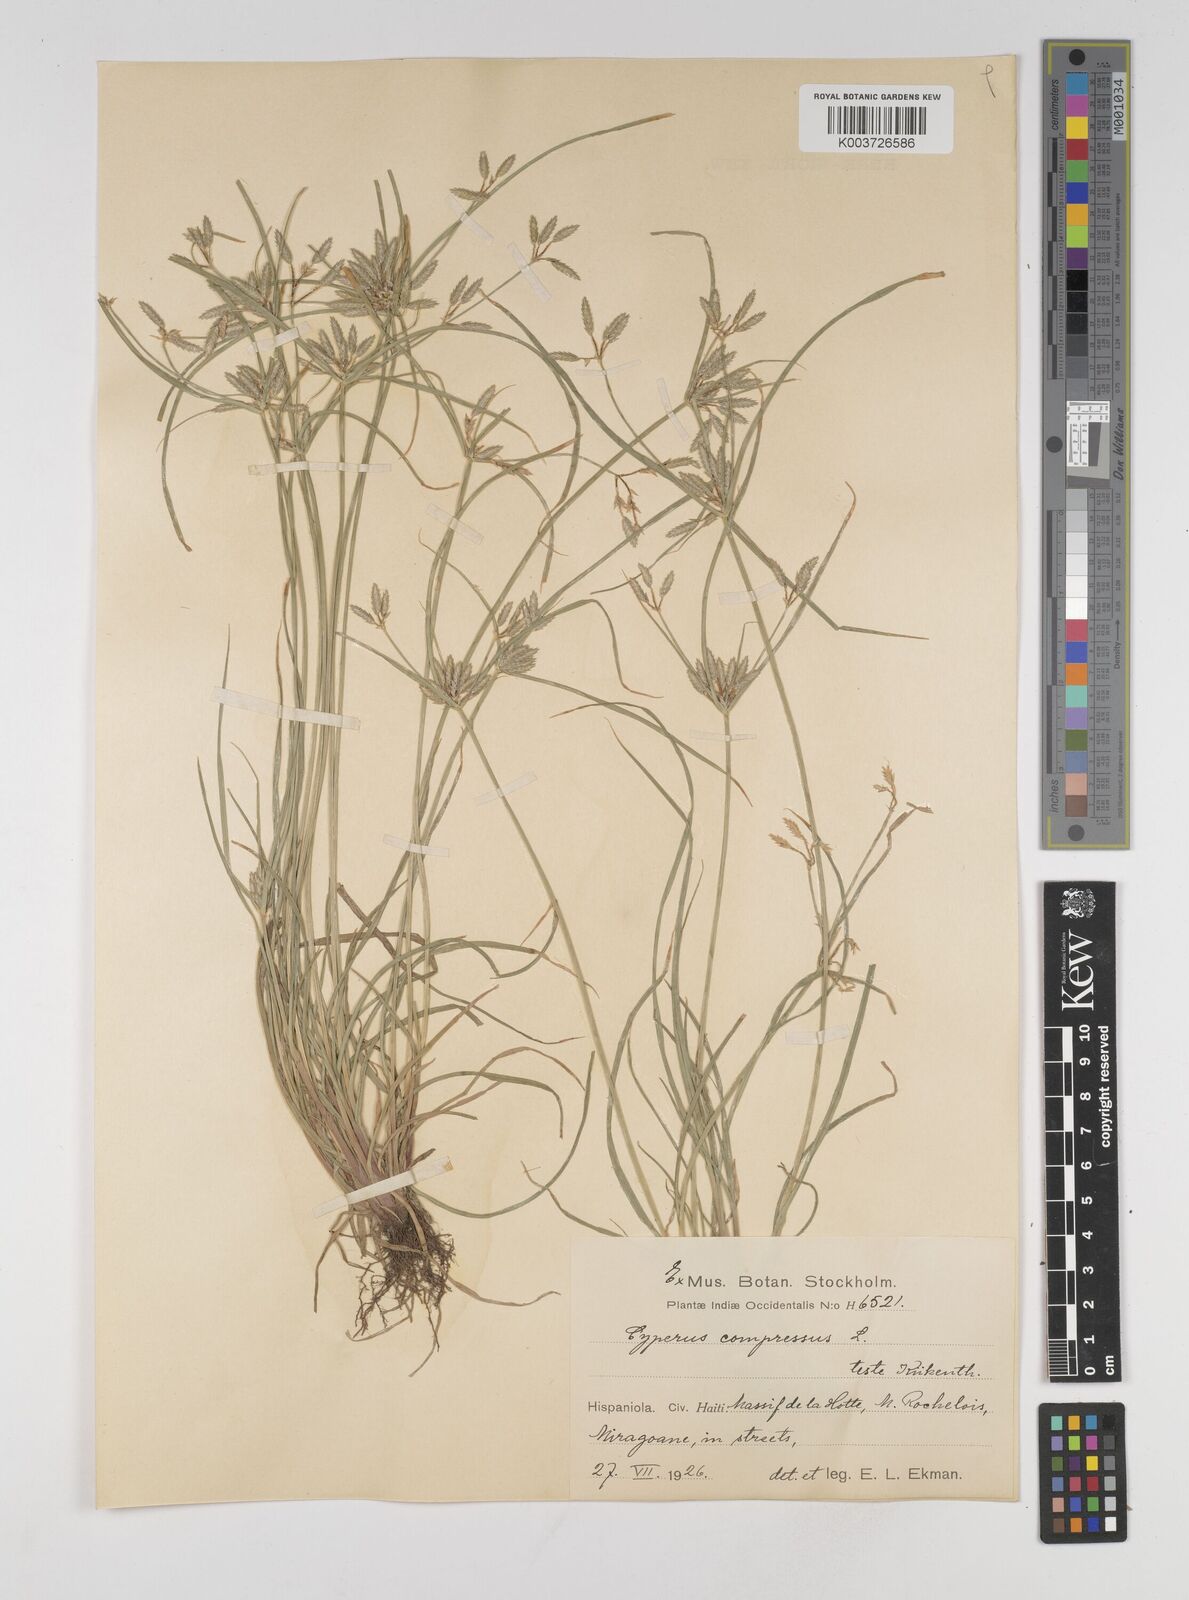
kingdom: Plantae
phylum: Tracheophyta
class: Liliopsida
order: Poales
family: Cyperaceae
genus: Cyperus
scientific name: Cyperus compressus
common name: Poorland flatsedge
